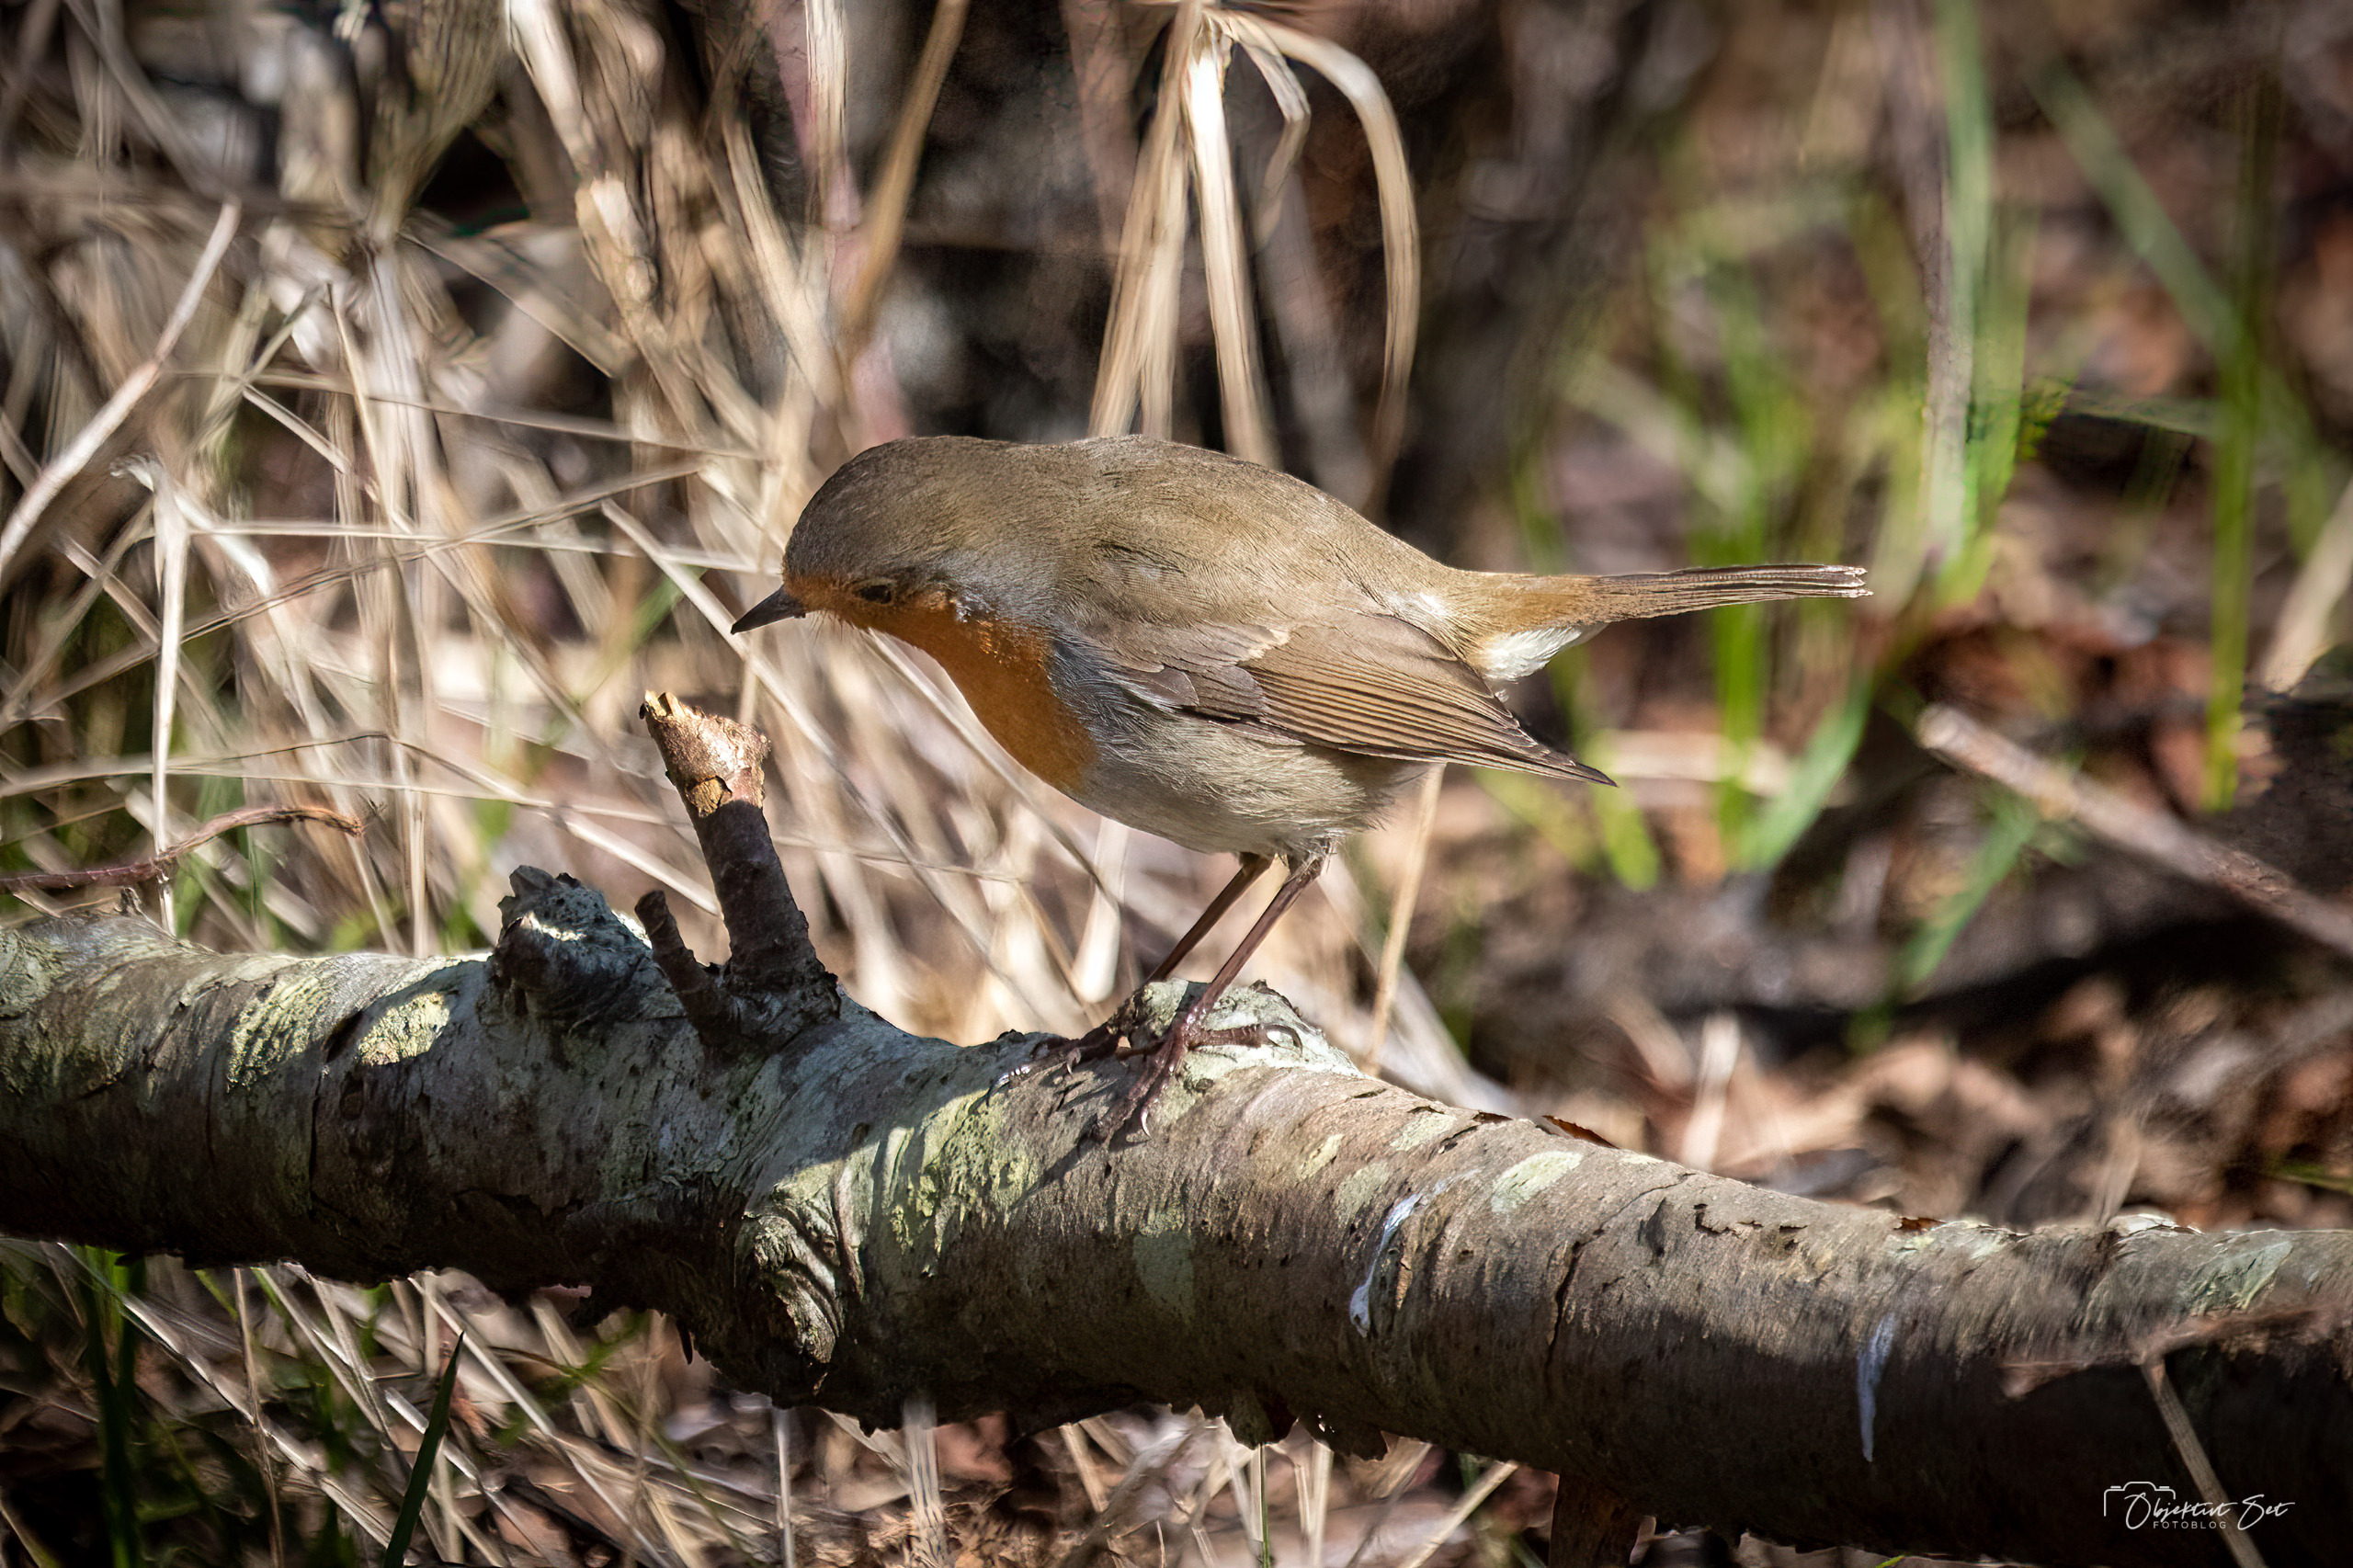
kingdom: Animalia
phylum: Chordata
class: Aves
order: Passeriformes
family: Muscicapidae
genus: Erithacus
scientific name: Erithacus rubecula
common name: Rødhals/rødkælk
